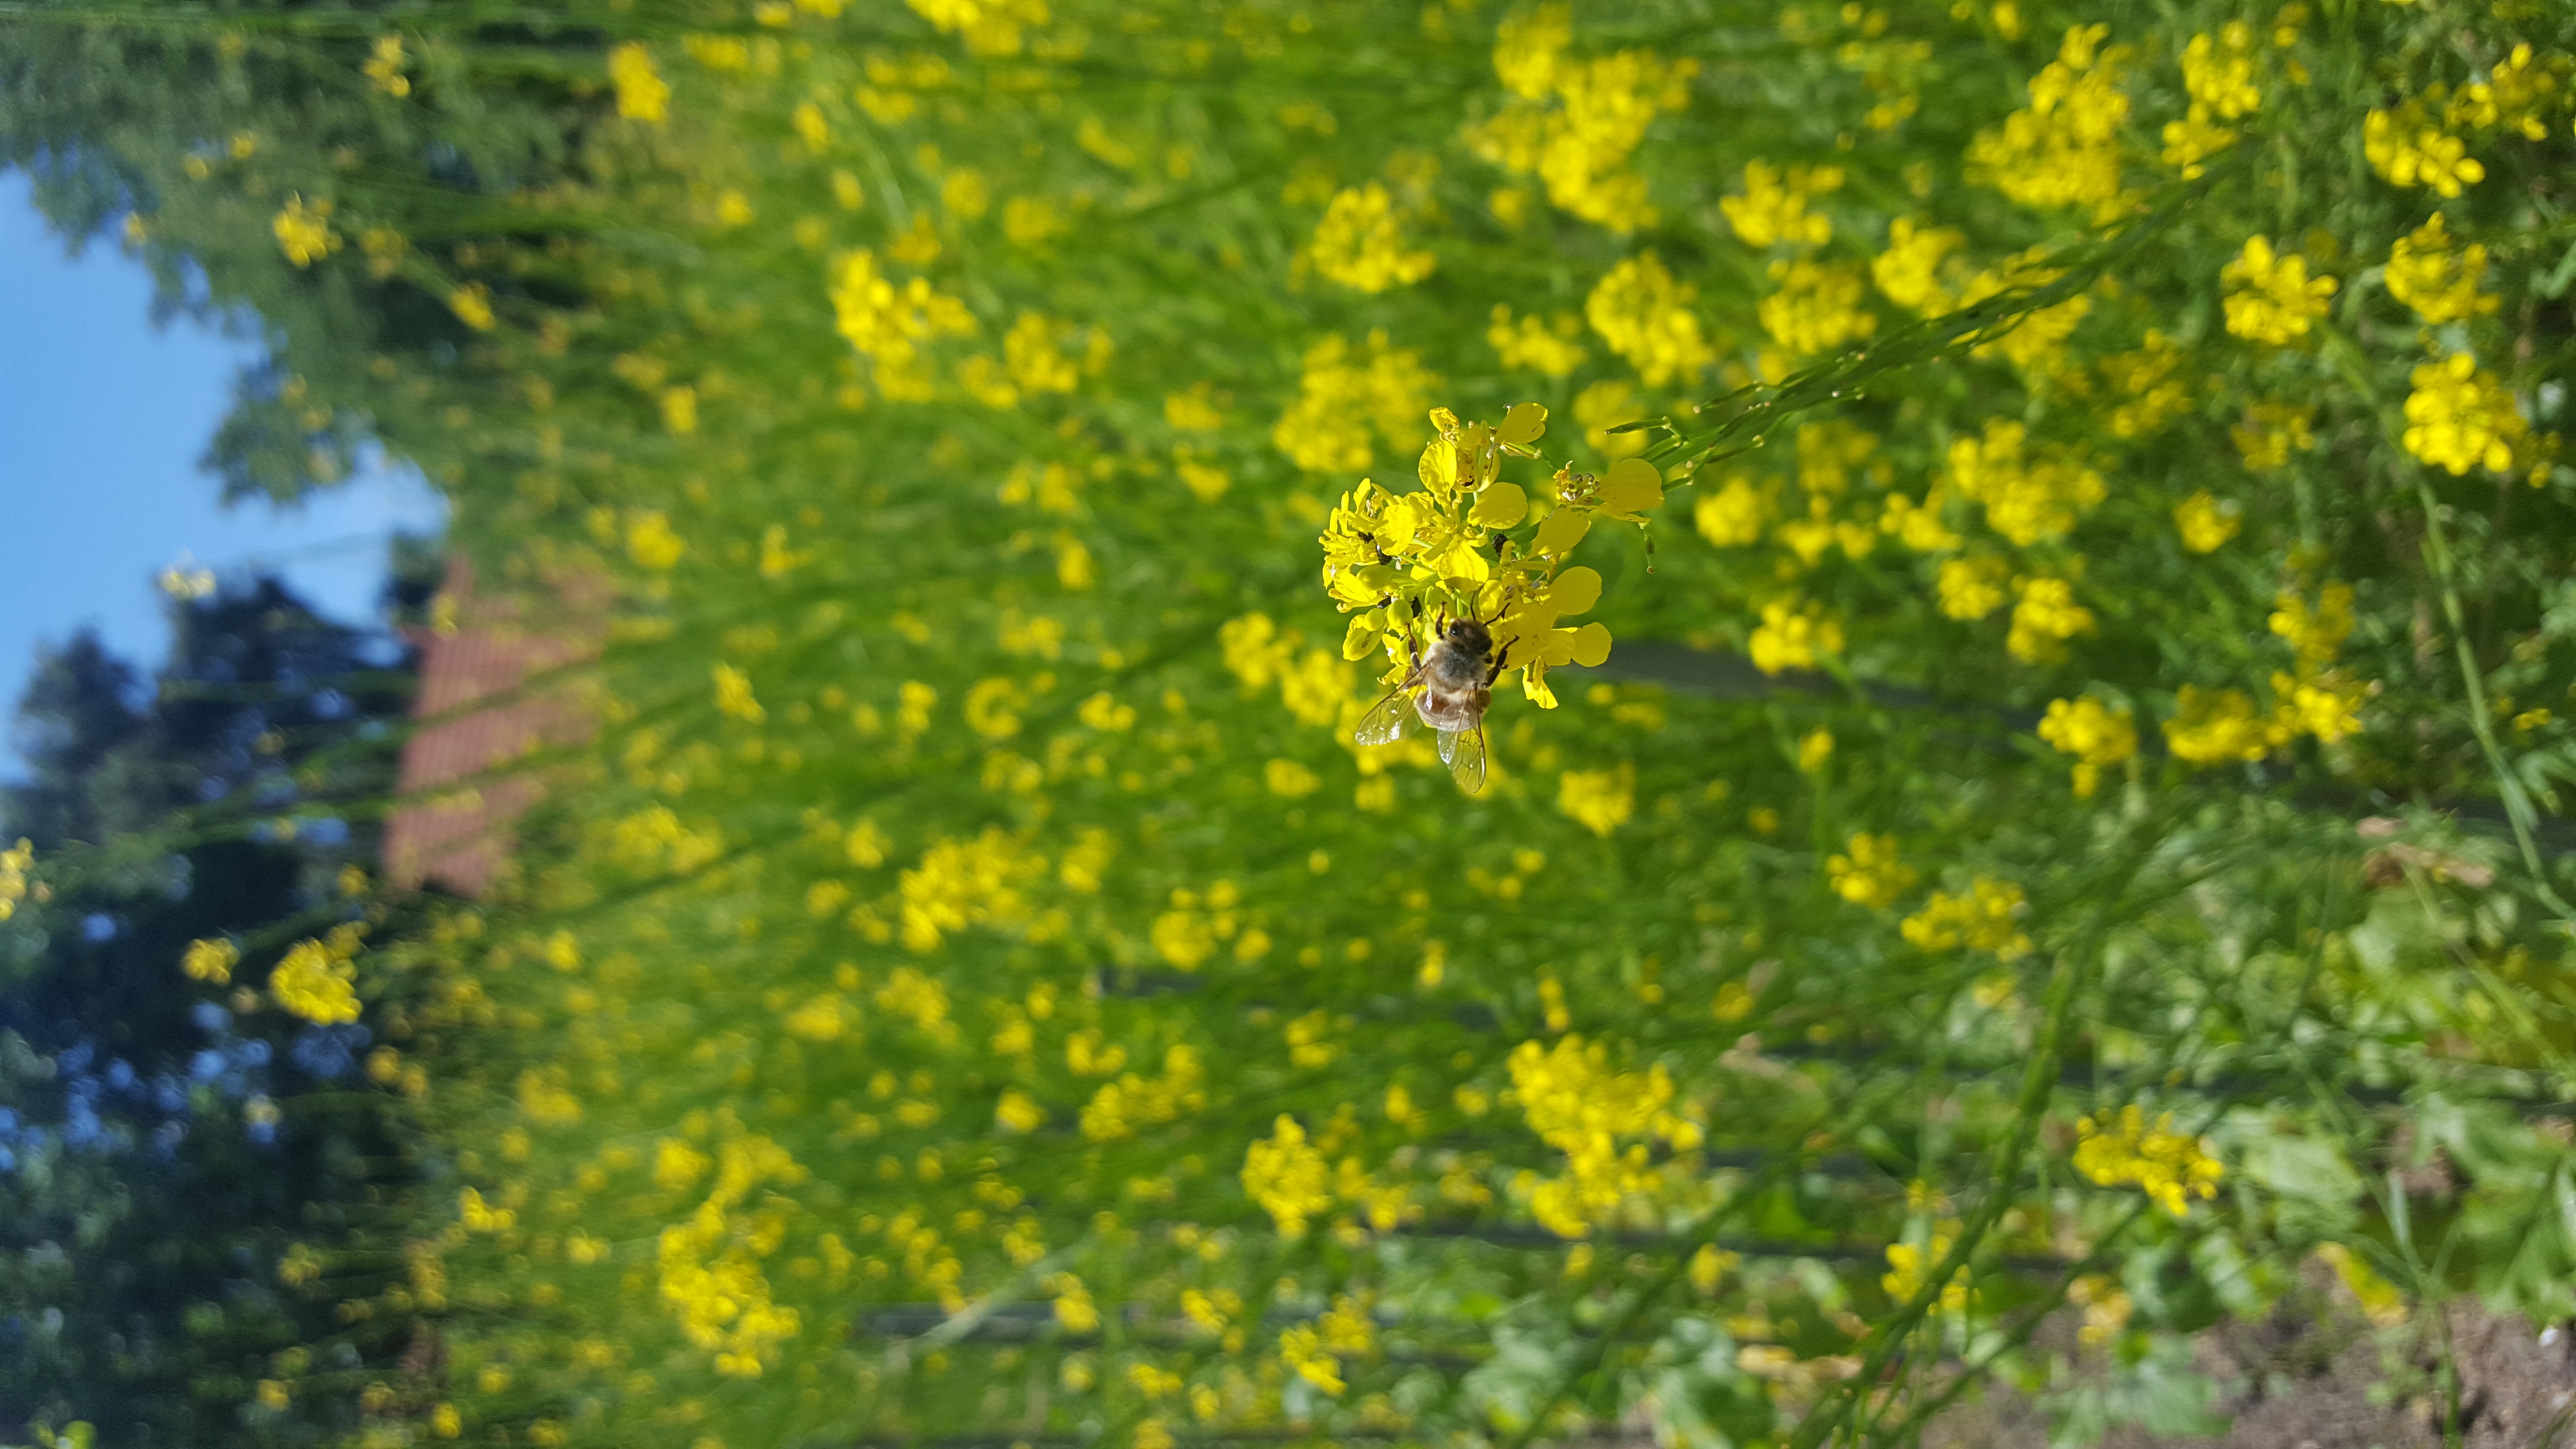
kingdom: Plantae
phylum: Tracheophyta
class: Magnoliopsida
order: Brassicales
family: Brassicaceae
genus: Brassica
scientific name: Brassica nigra
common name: Black mustard
